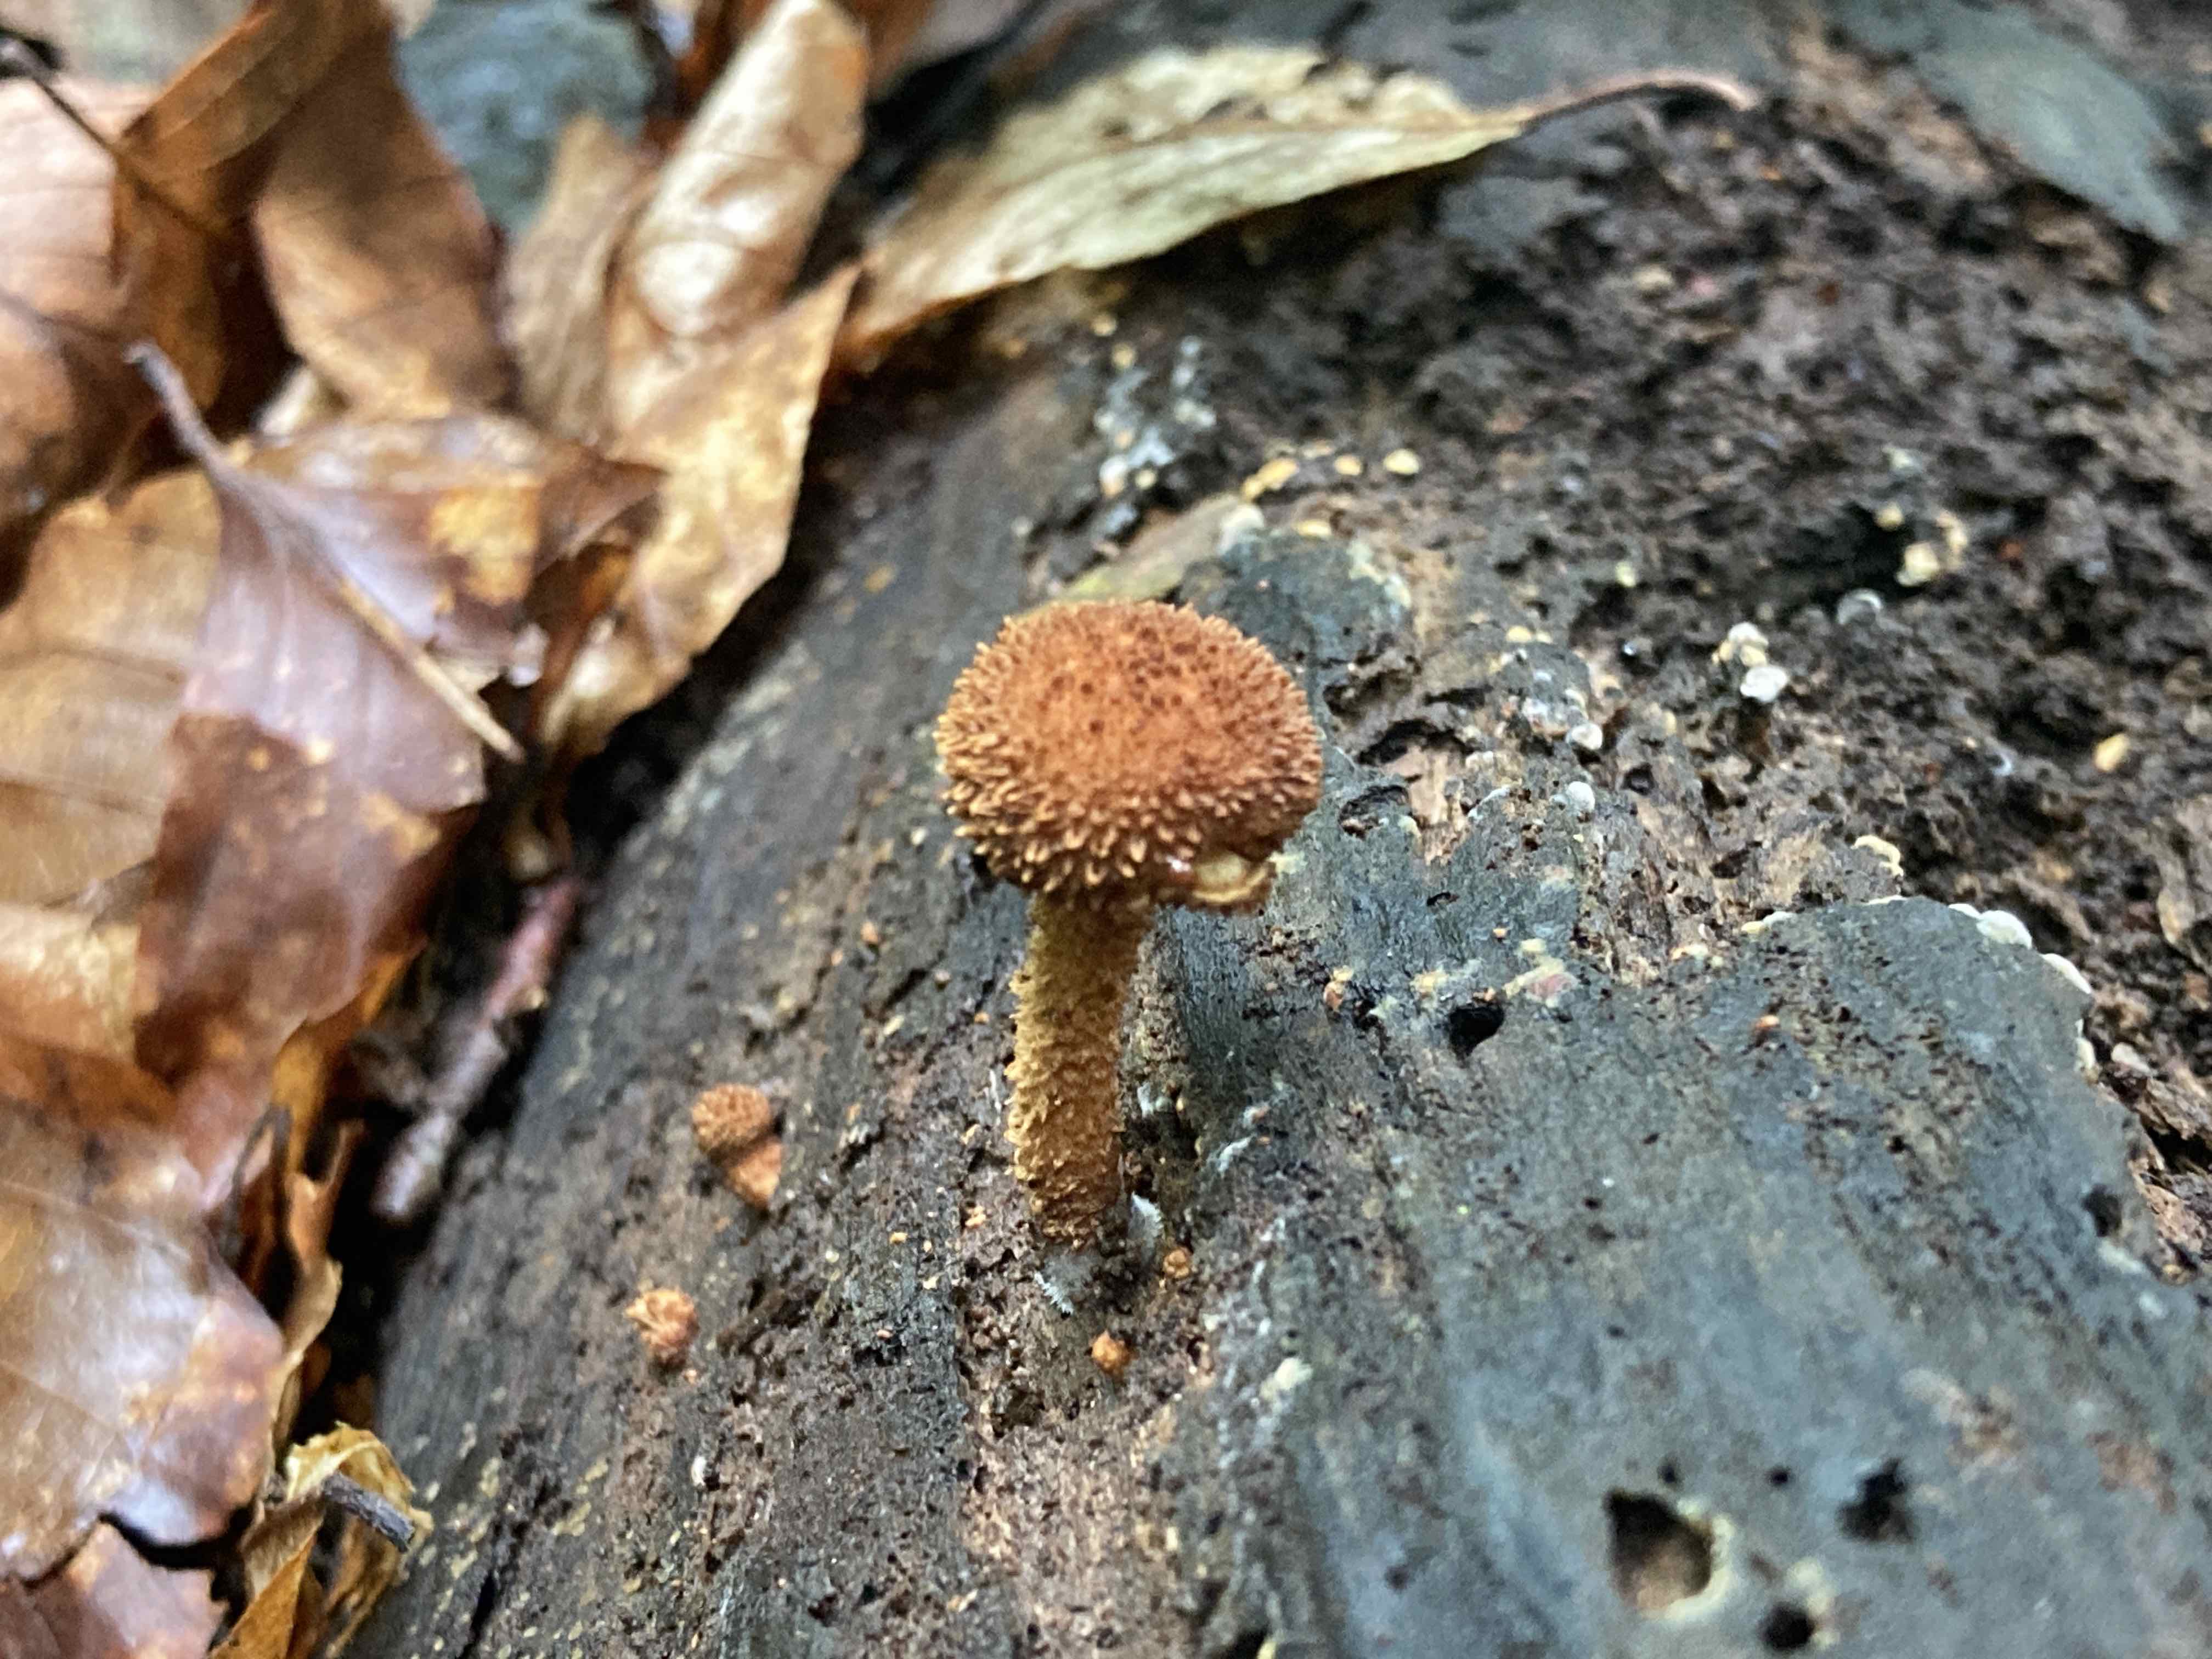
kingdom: Fungi
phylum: Basidiomycota
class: Agaricomycetes
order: Agaricales
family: Tubariaceae
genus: Flammulaster
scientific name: Flammulaster muricatus
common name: pigget grynskælhat
